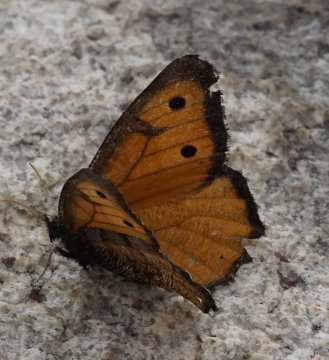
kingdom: Animalia
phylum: Arthropoda
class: Insecta
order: Lepidoptera
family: Nymphalidae
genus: Oeneis
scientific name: Oeneis macounii
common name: Macoun's Arctic
